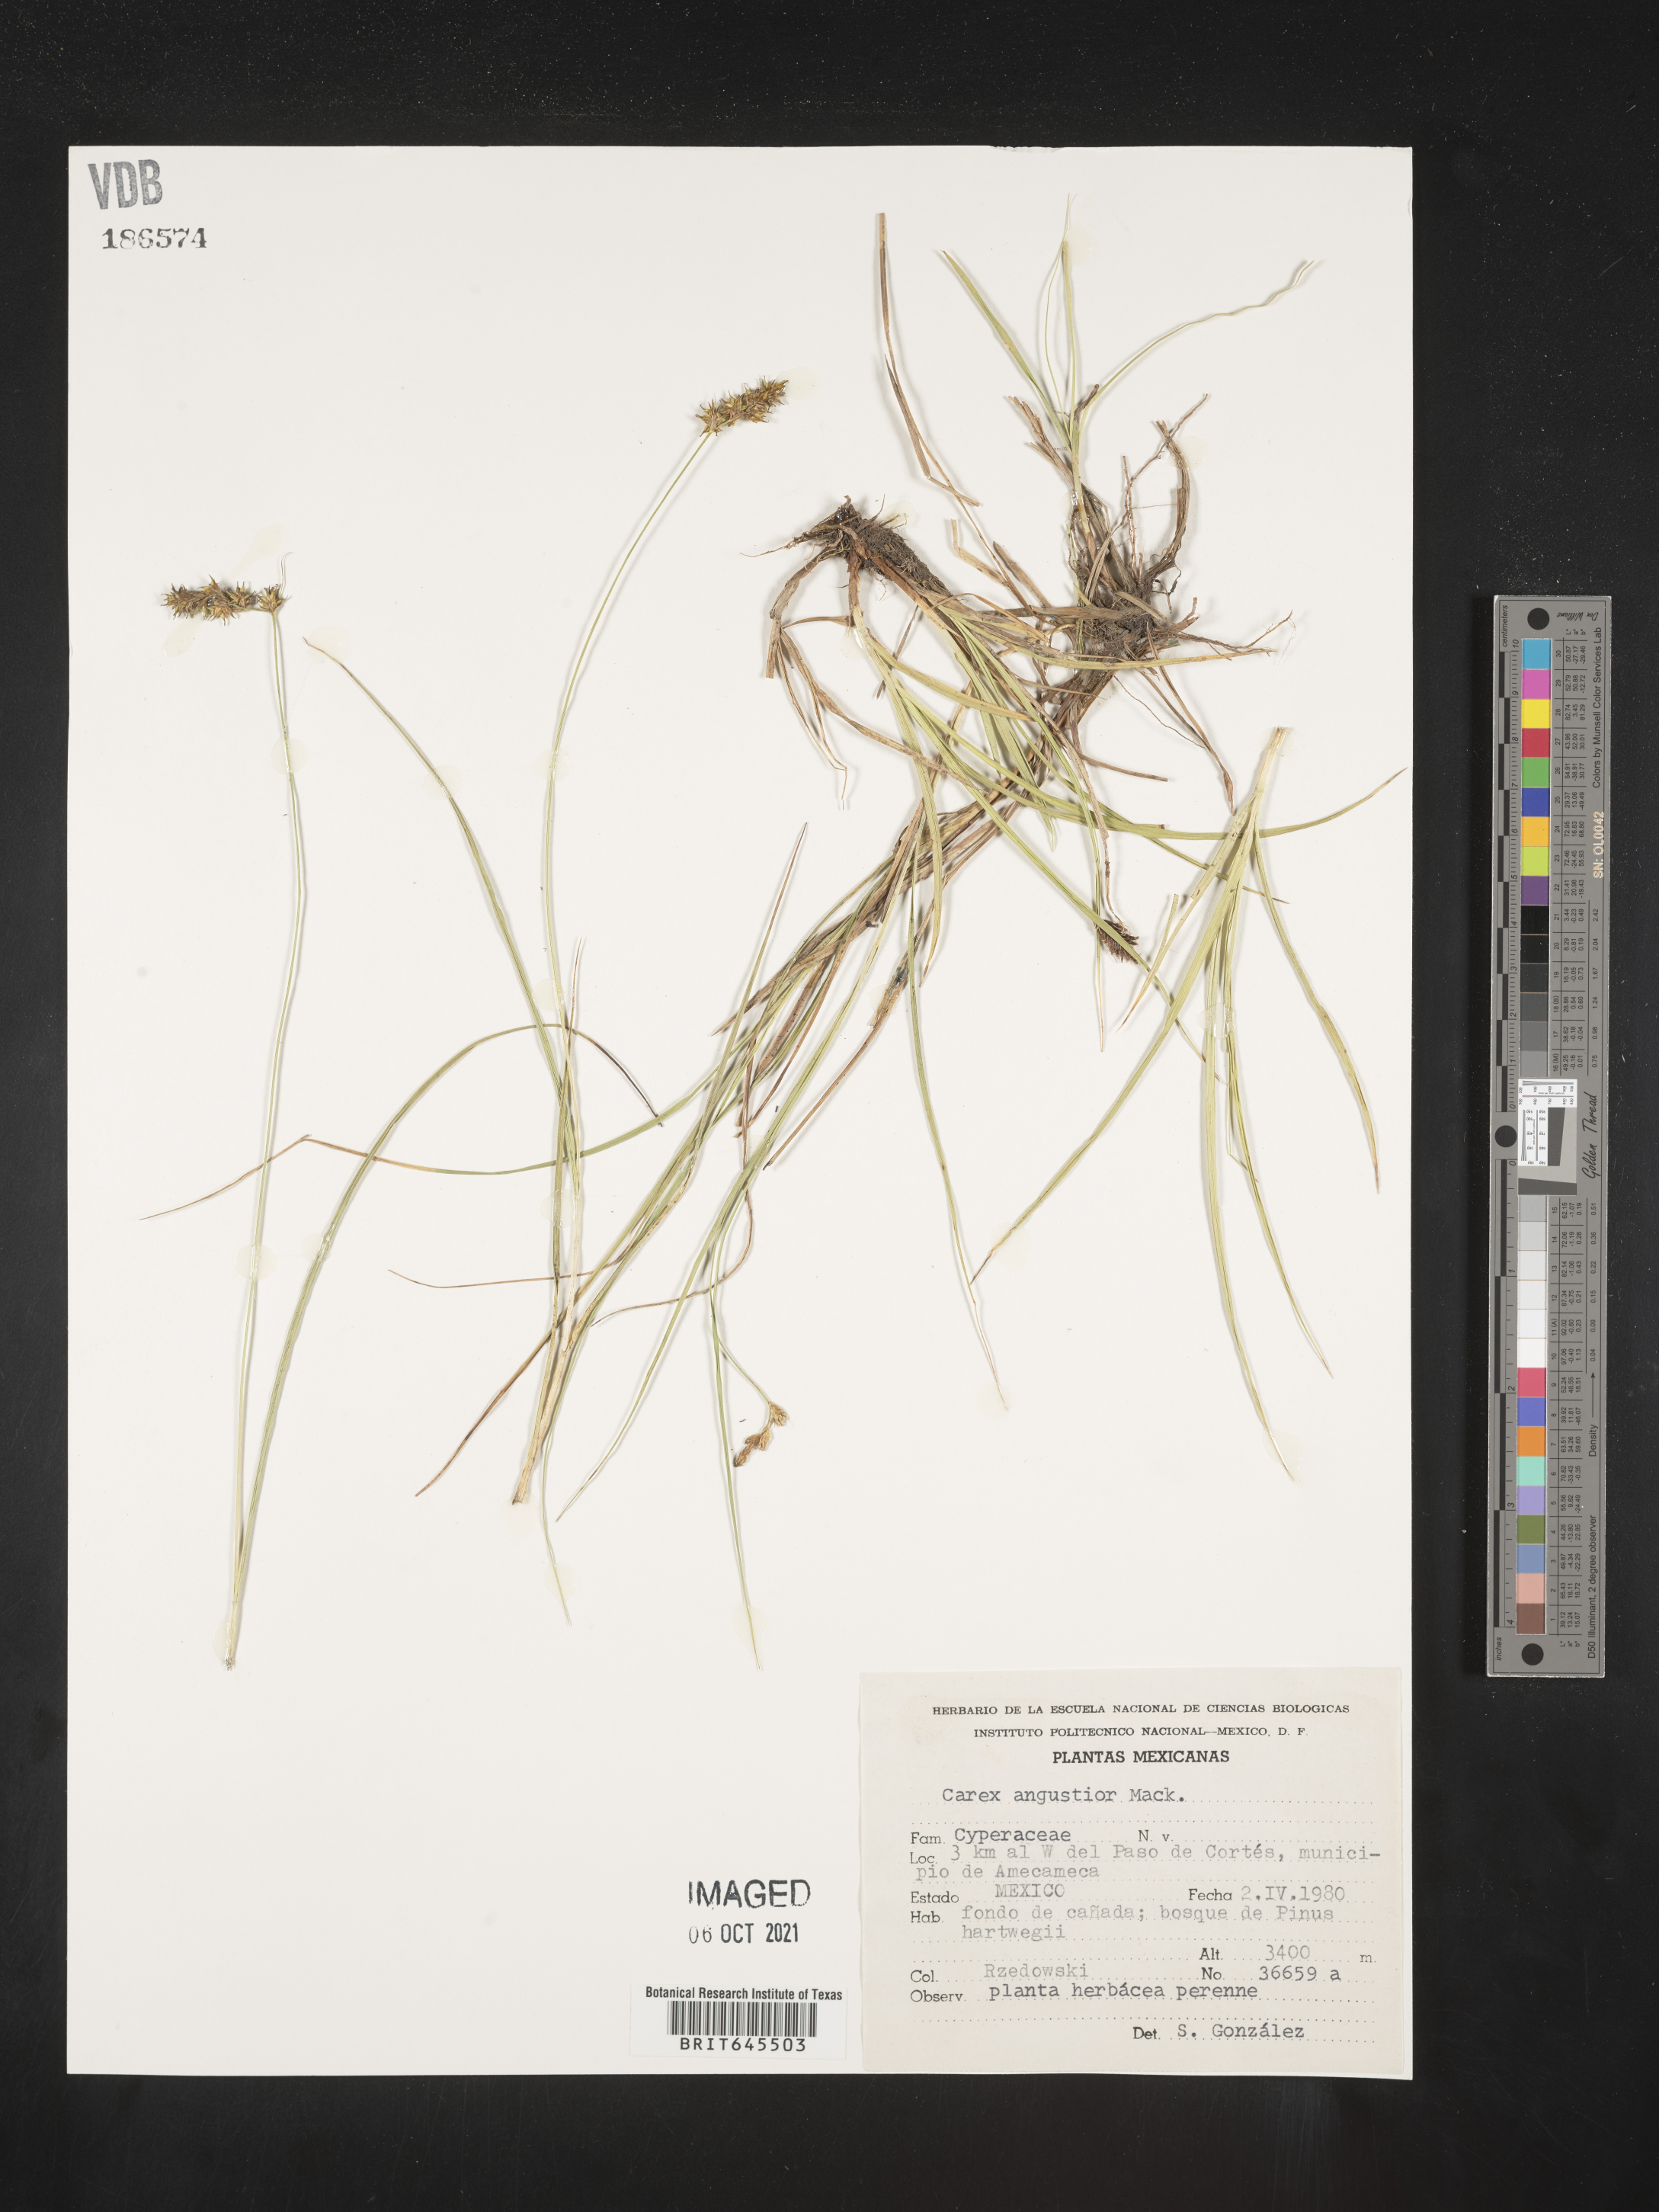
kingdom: Plantae
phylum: Tracheophyta
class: Liliopsida
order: Poales
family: Cyperaceae
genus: Carex
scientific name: Carex
